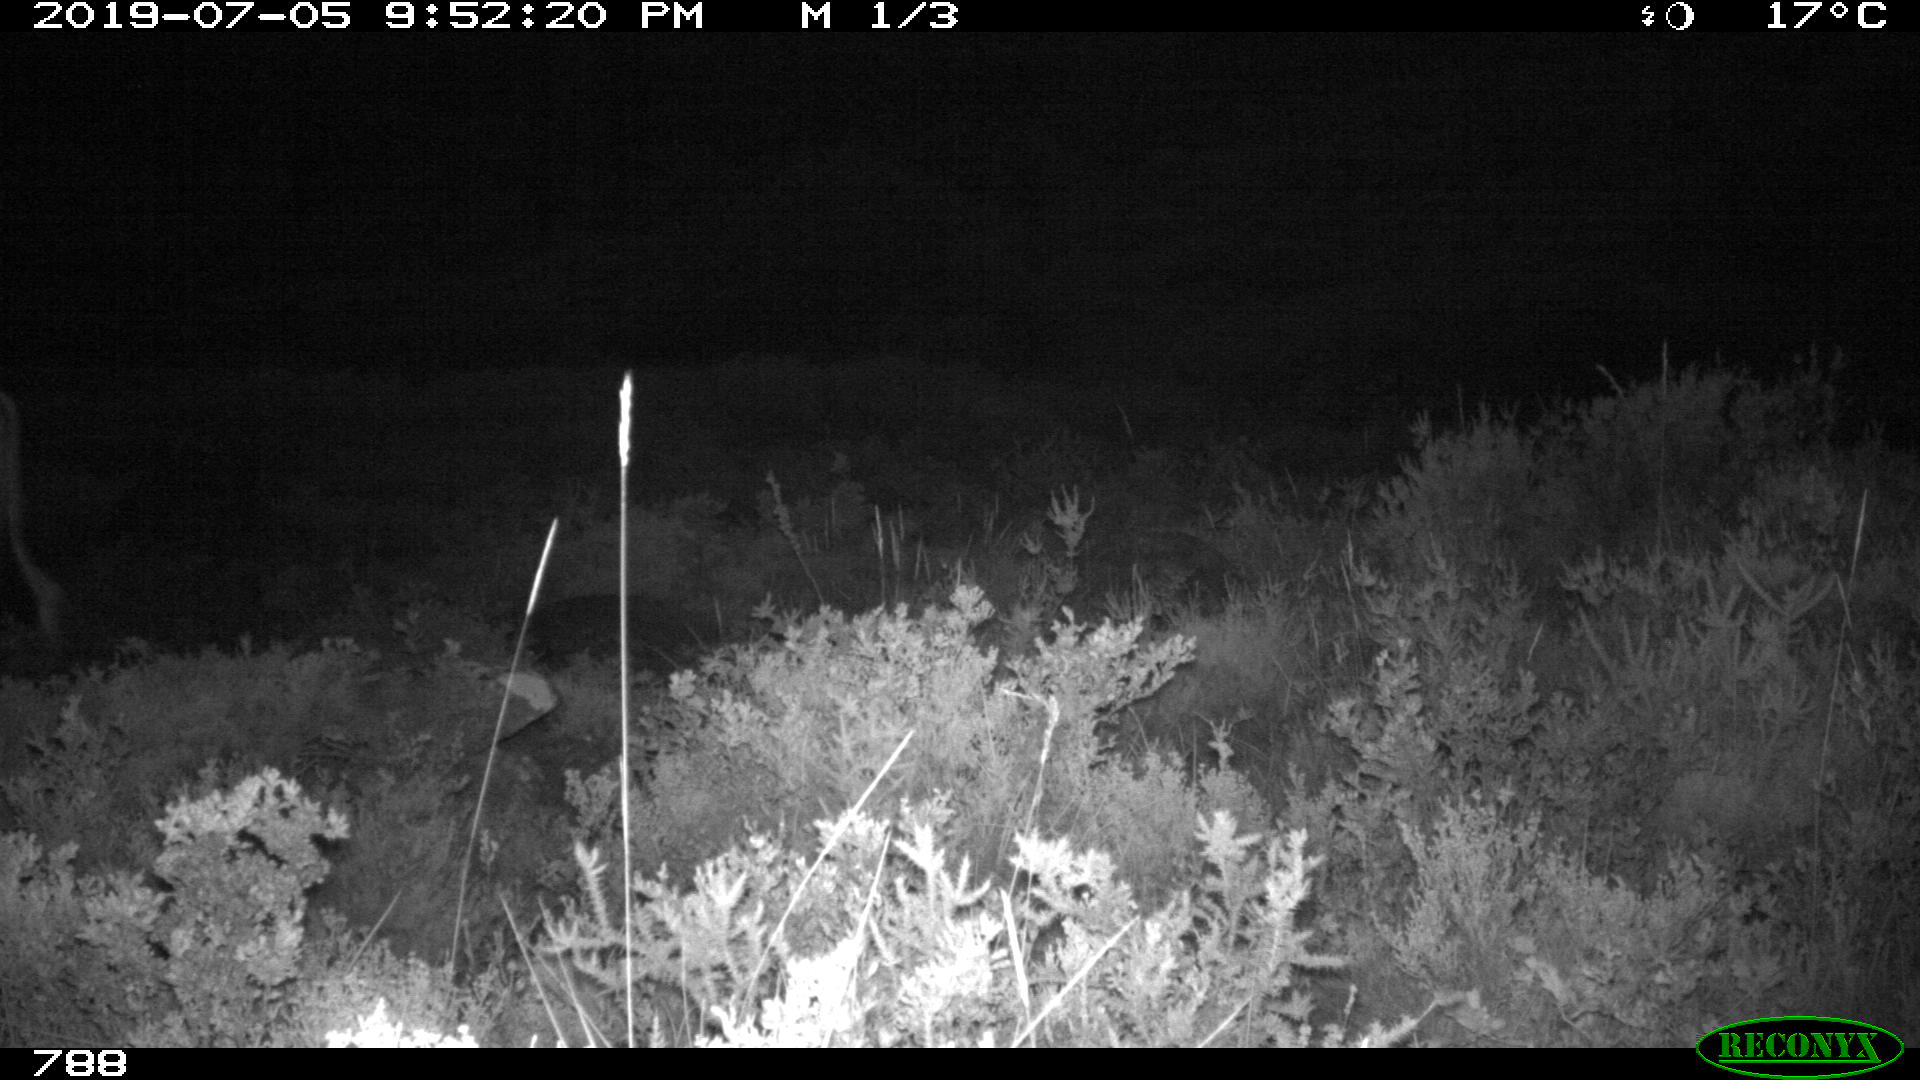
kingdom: Animalia
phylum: Chordata
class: Mammalia
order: Artiodactyla
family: Bovidae
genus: Bos
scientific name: Bos taurus
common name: Domesticated cattle
